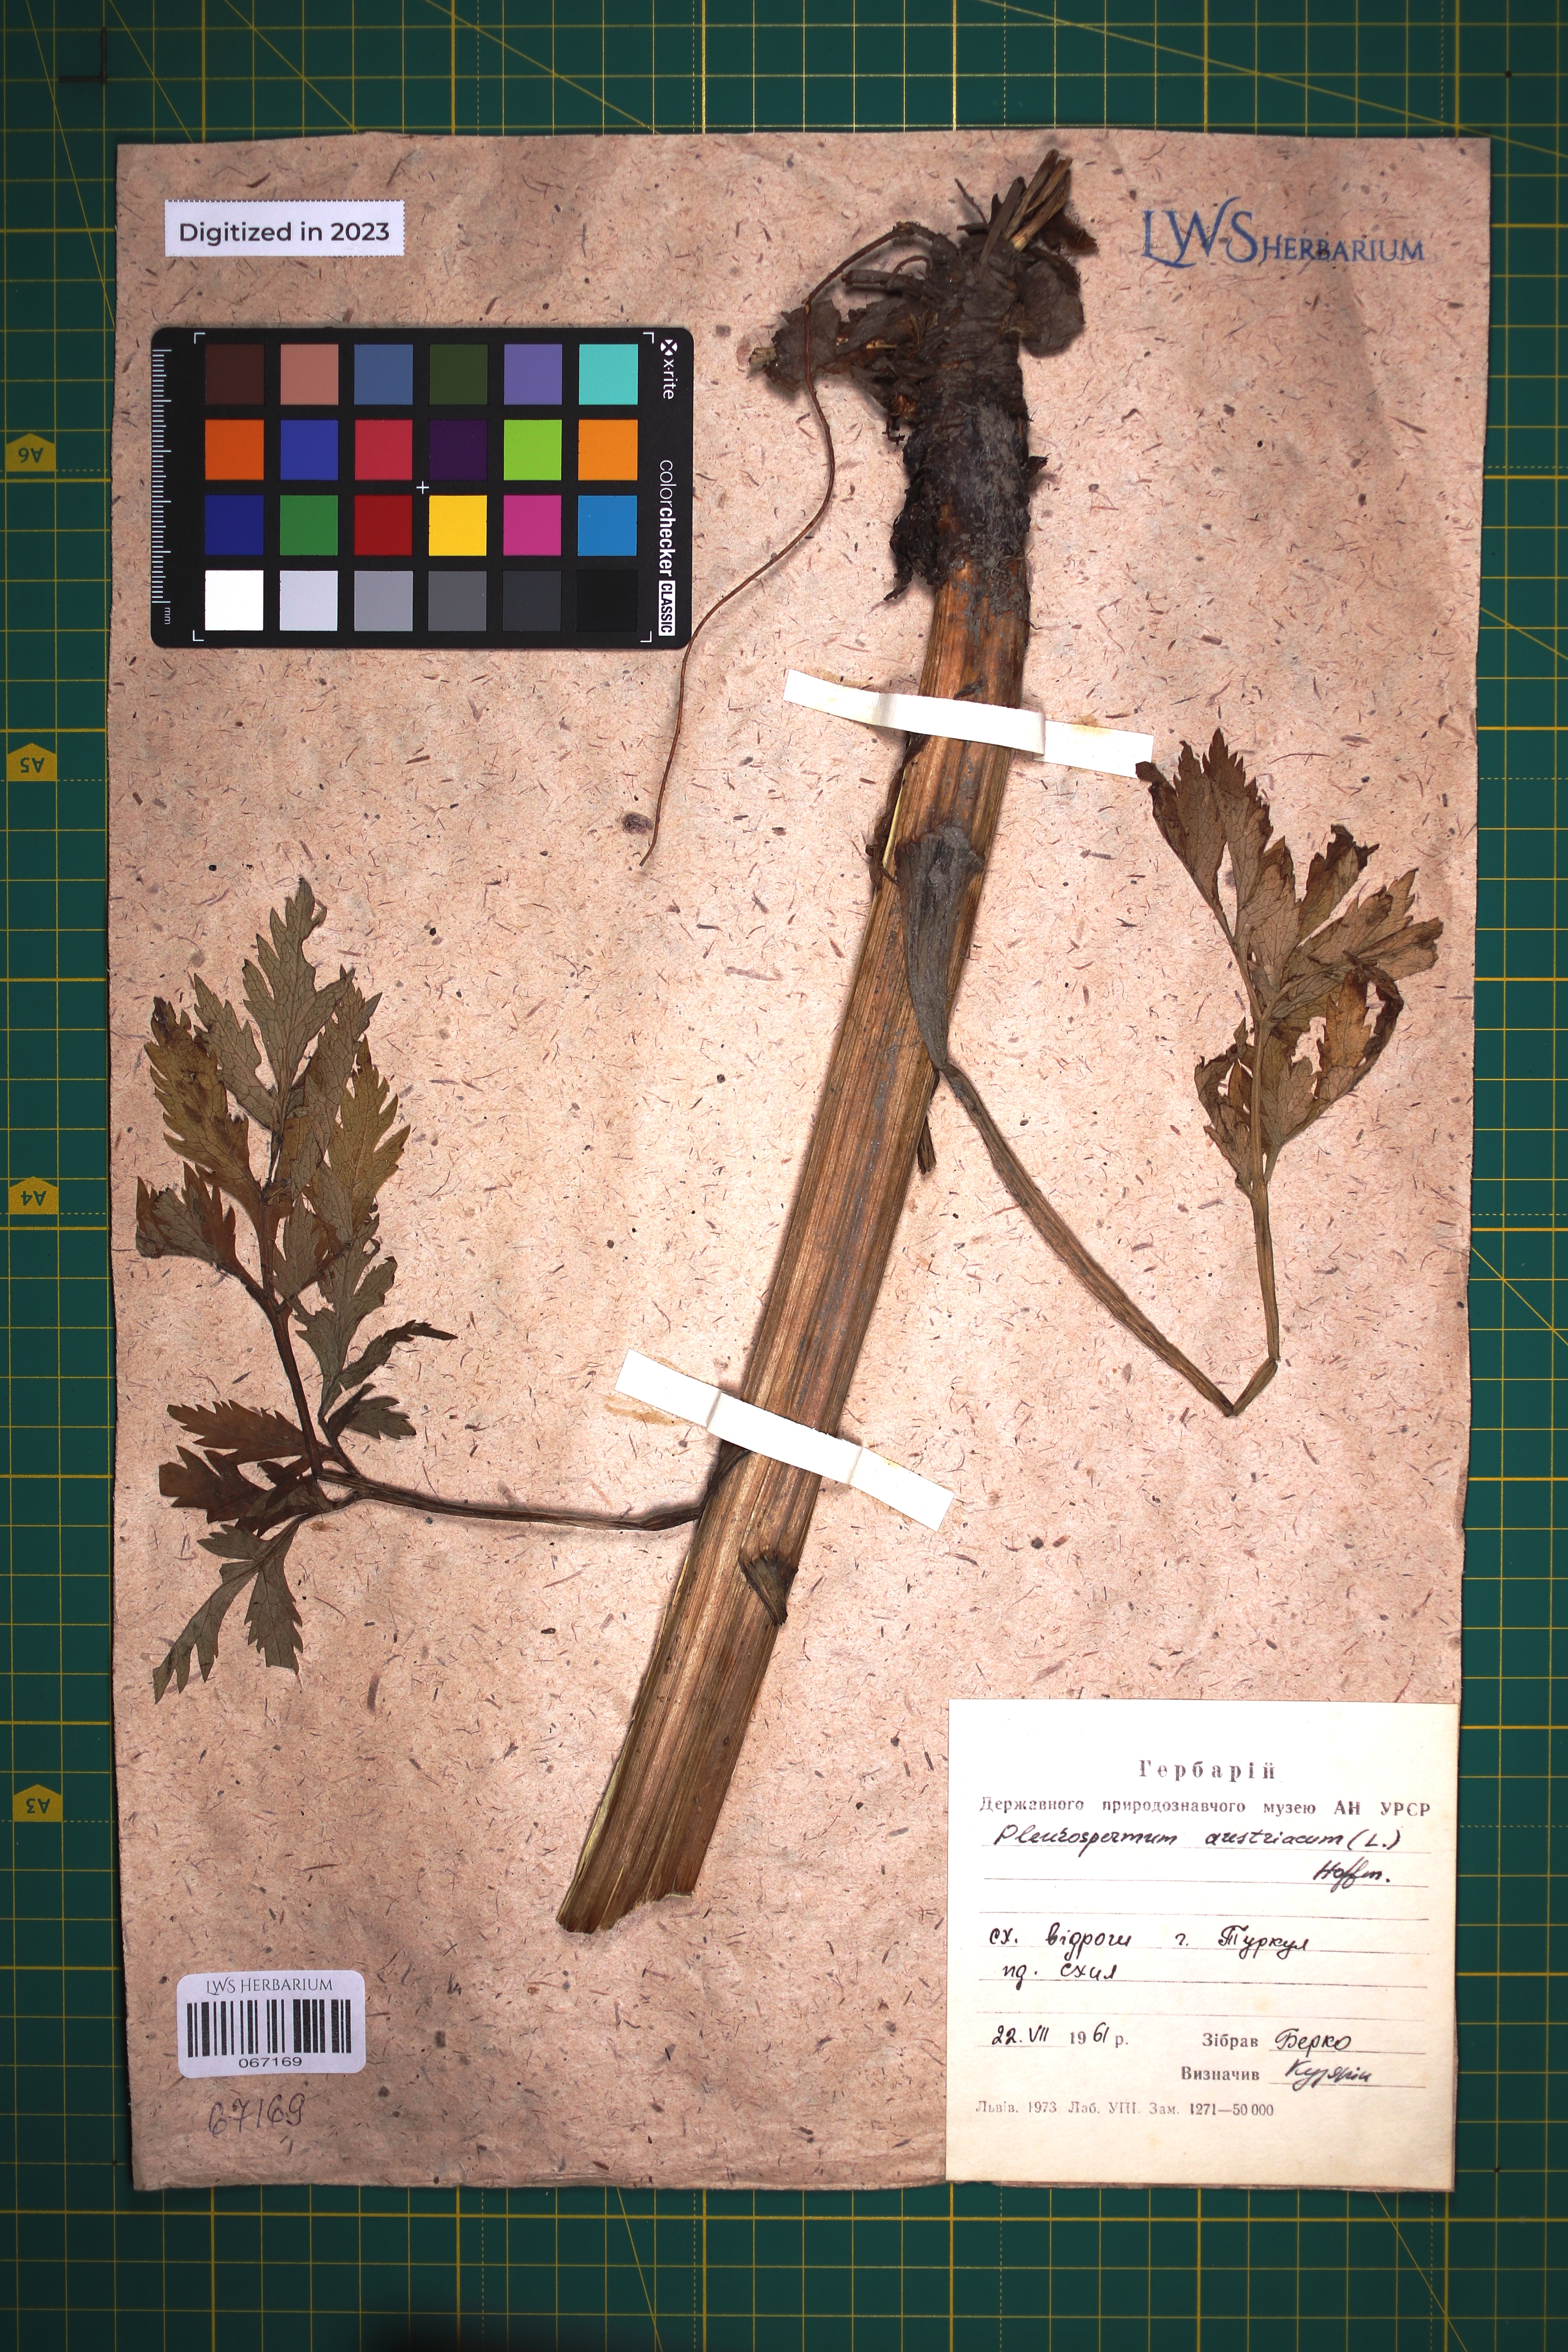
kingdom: Plantae
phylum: Tracheophyta
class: Magnoliopsida
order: Apiales
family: Apiaceae
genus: Pleurospermum
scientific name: Pleurospermum austriacum
